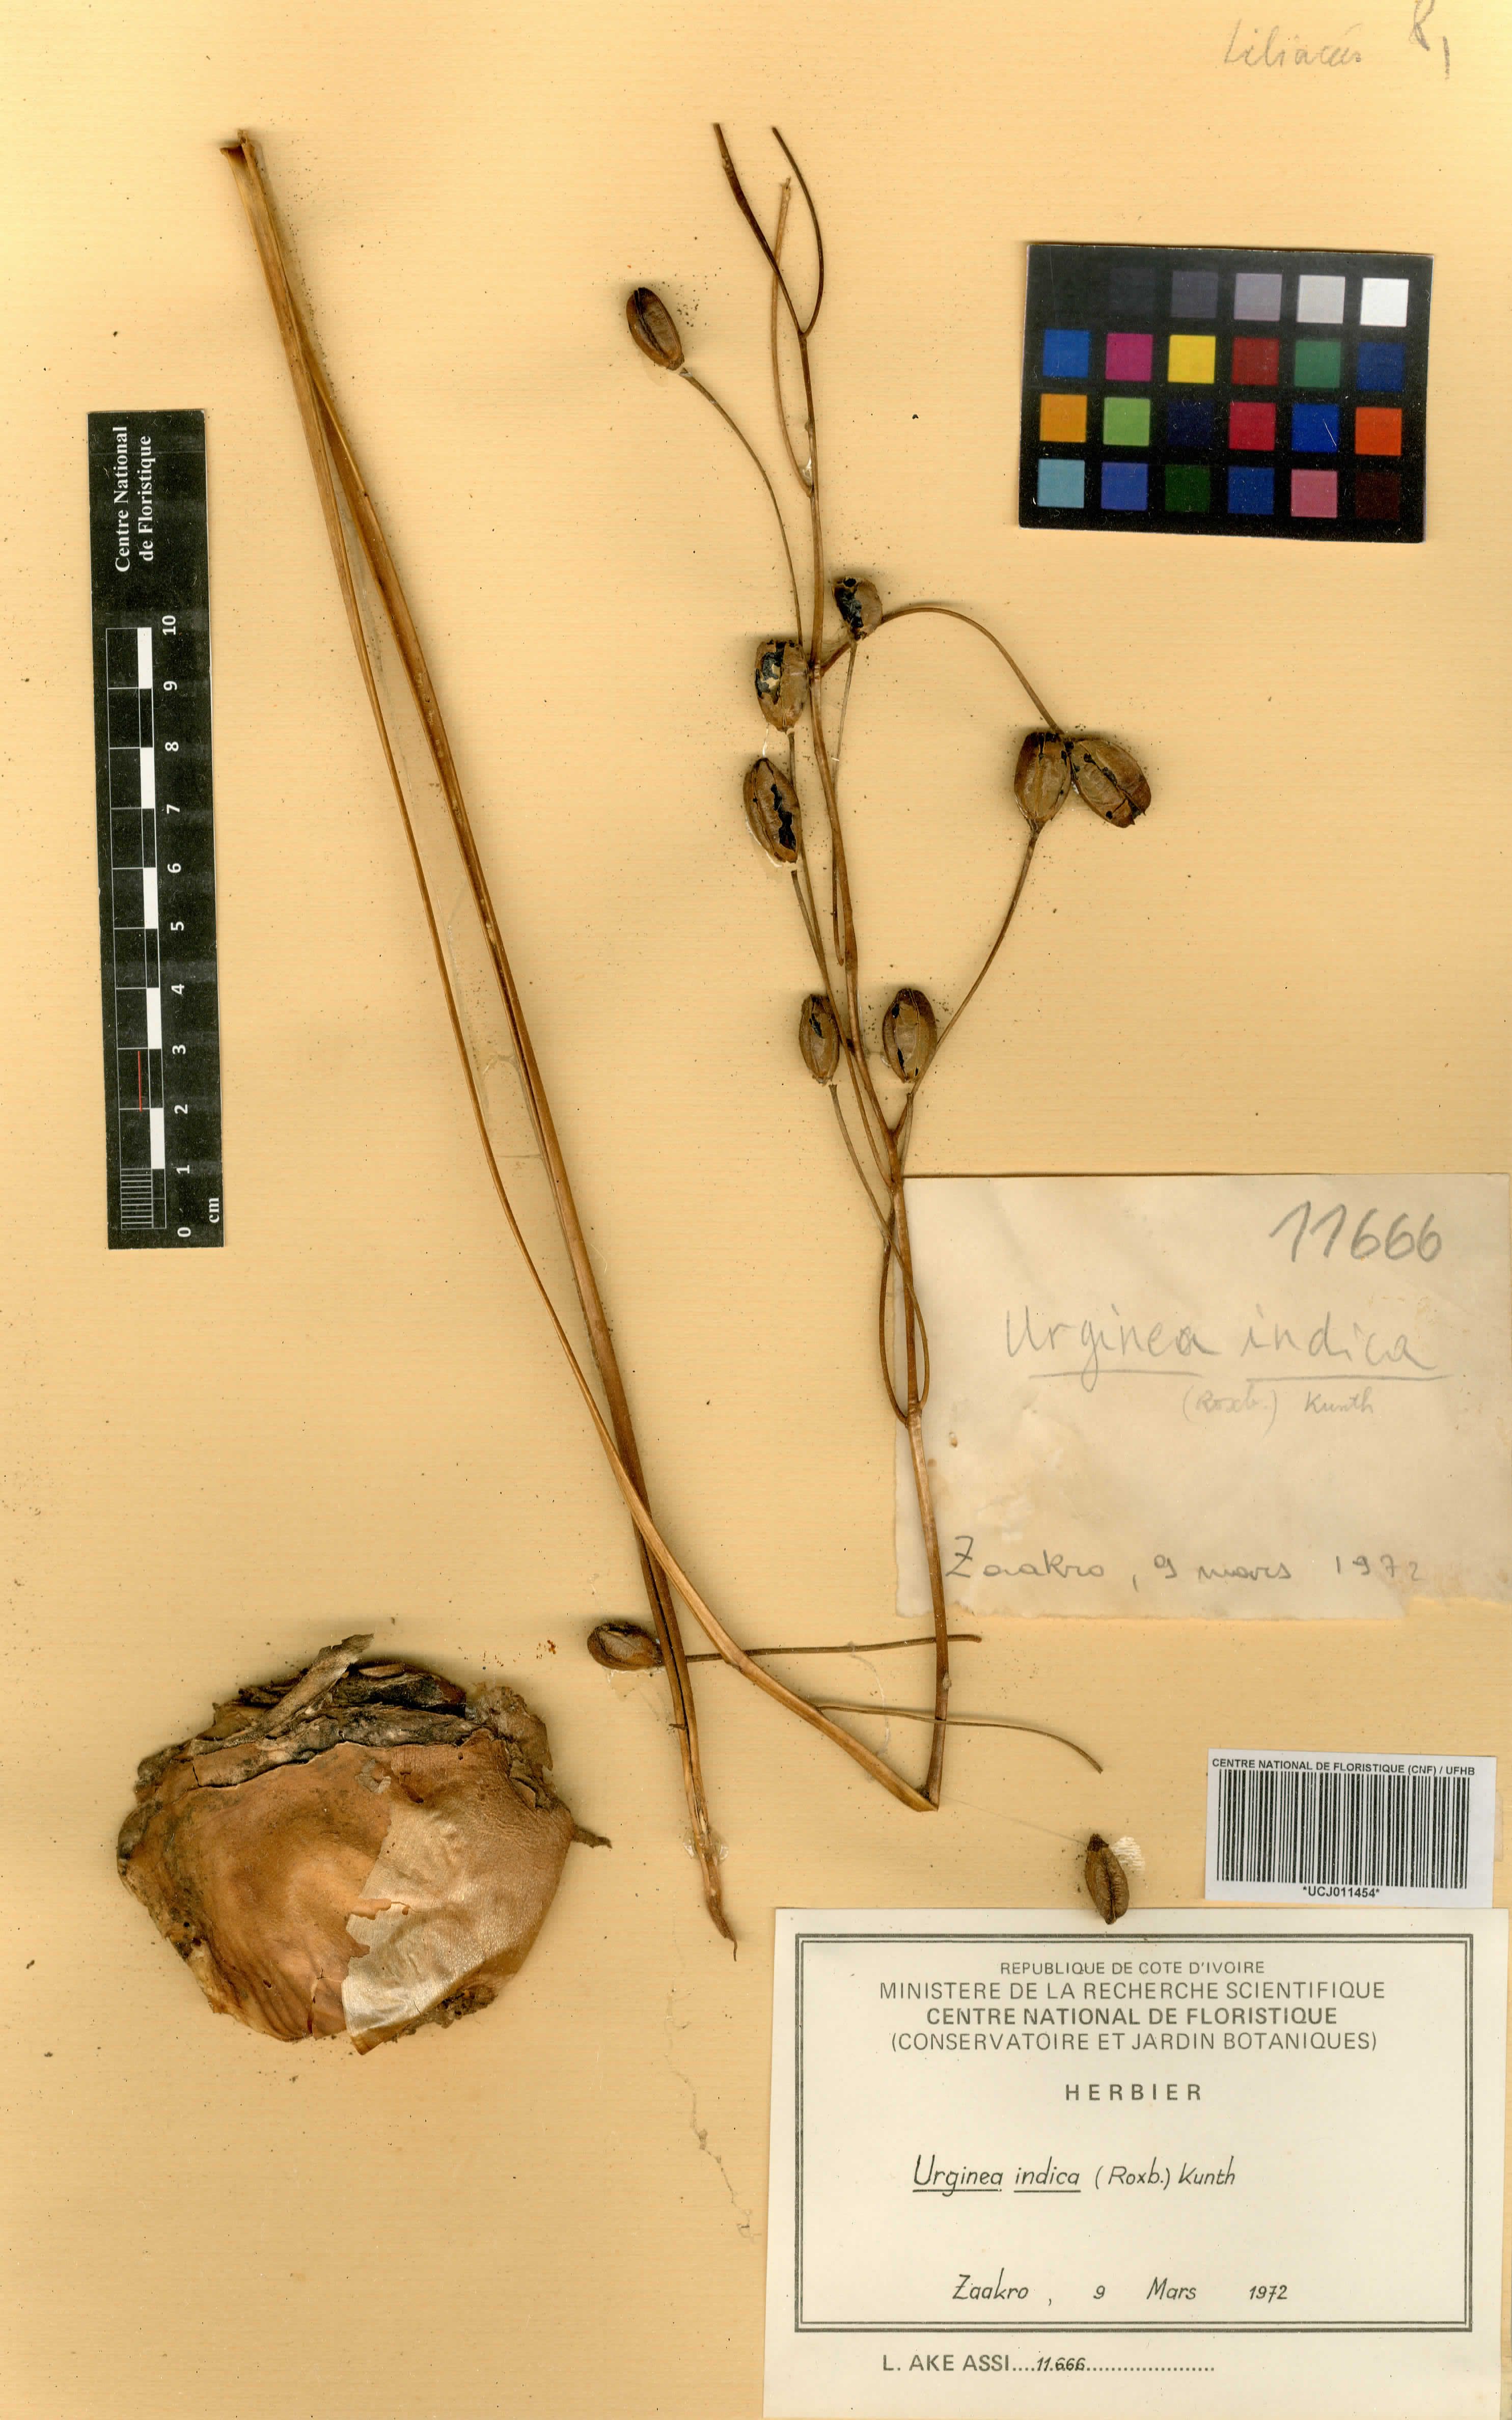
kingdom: Plantae
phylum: Tracheophyta
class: Liliopsida
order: Asparagales
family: Asparagaceae
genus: Drimia
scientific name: Drimia indica
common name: Indian-squill
